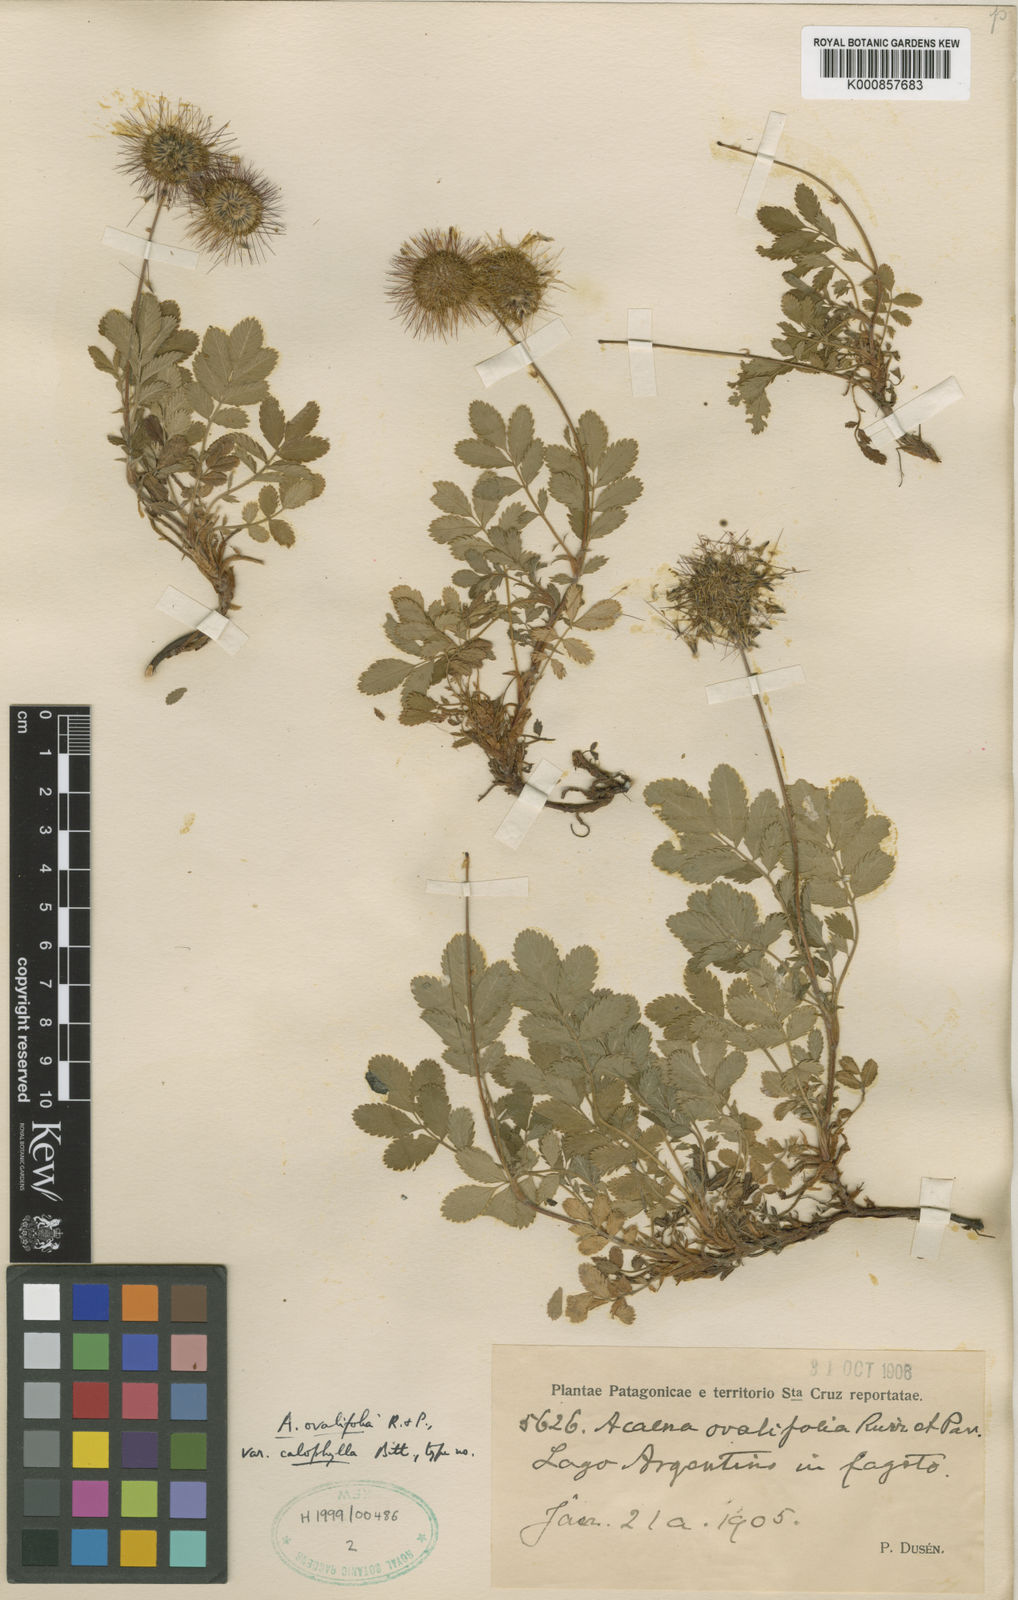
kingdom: Plantae
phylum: Tracheophyta
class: Magnoliopsida
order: Rosales
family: Rosaceae
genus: Acaena
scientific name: Acaena ovalifolia
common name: Two-spined acaena
